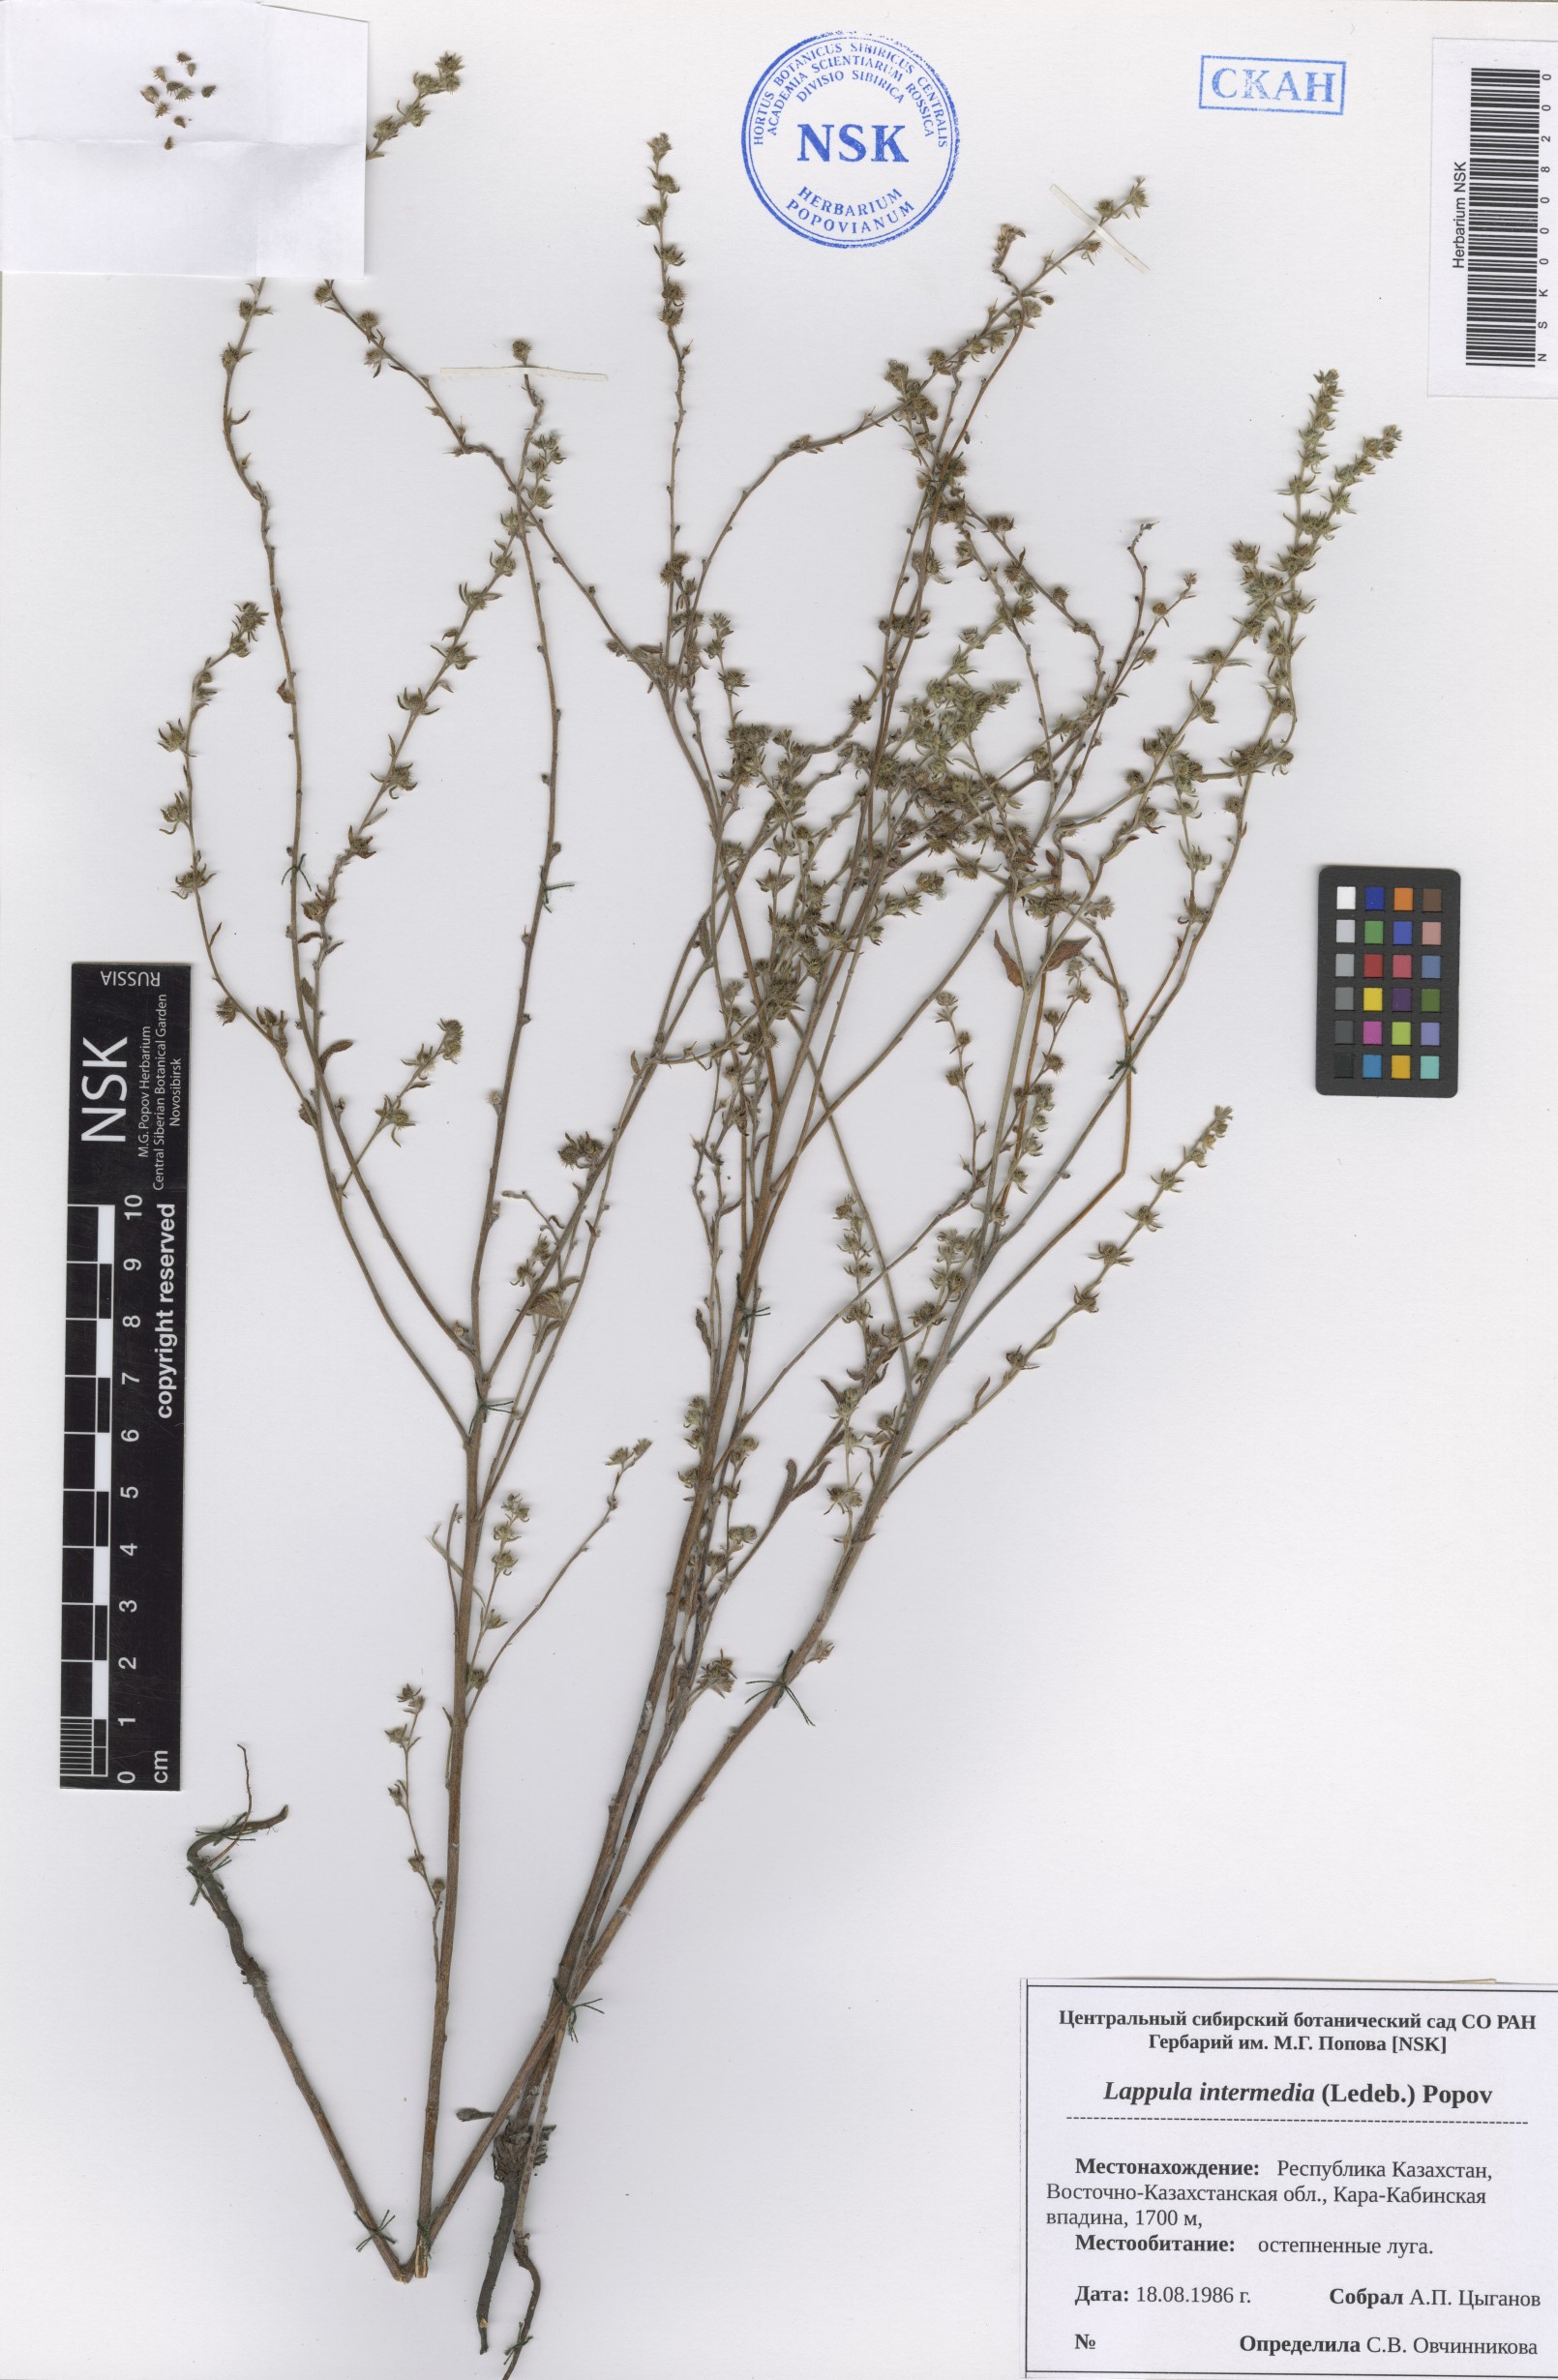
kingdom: Plantae
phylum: Tracheophyta
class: Magnoliopsida
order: Boraginales
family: Boraginaceae
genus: Lappula
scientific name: Lappula intermedia
